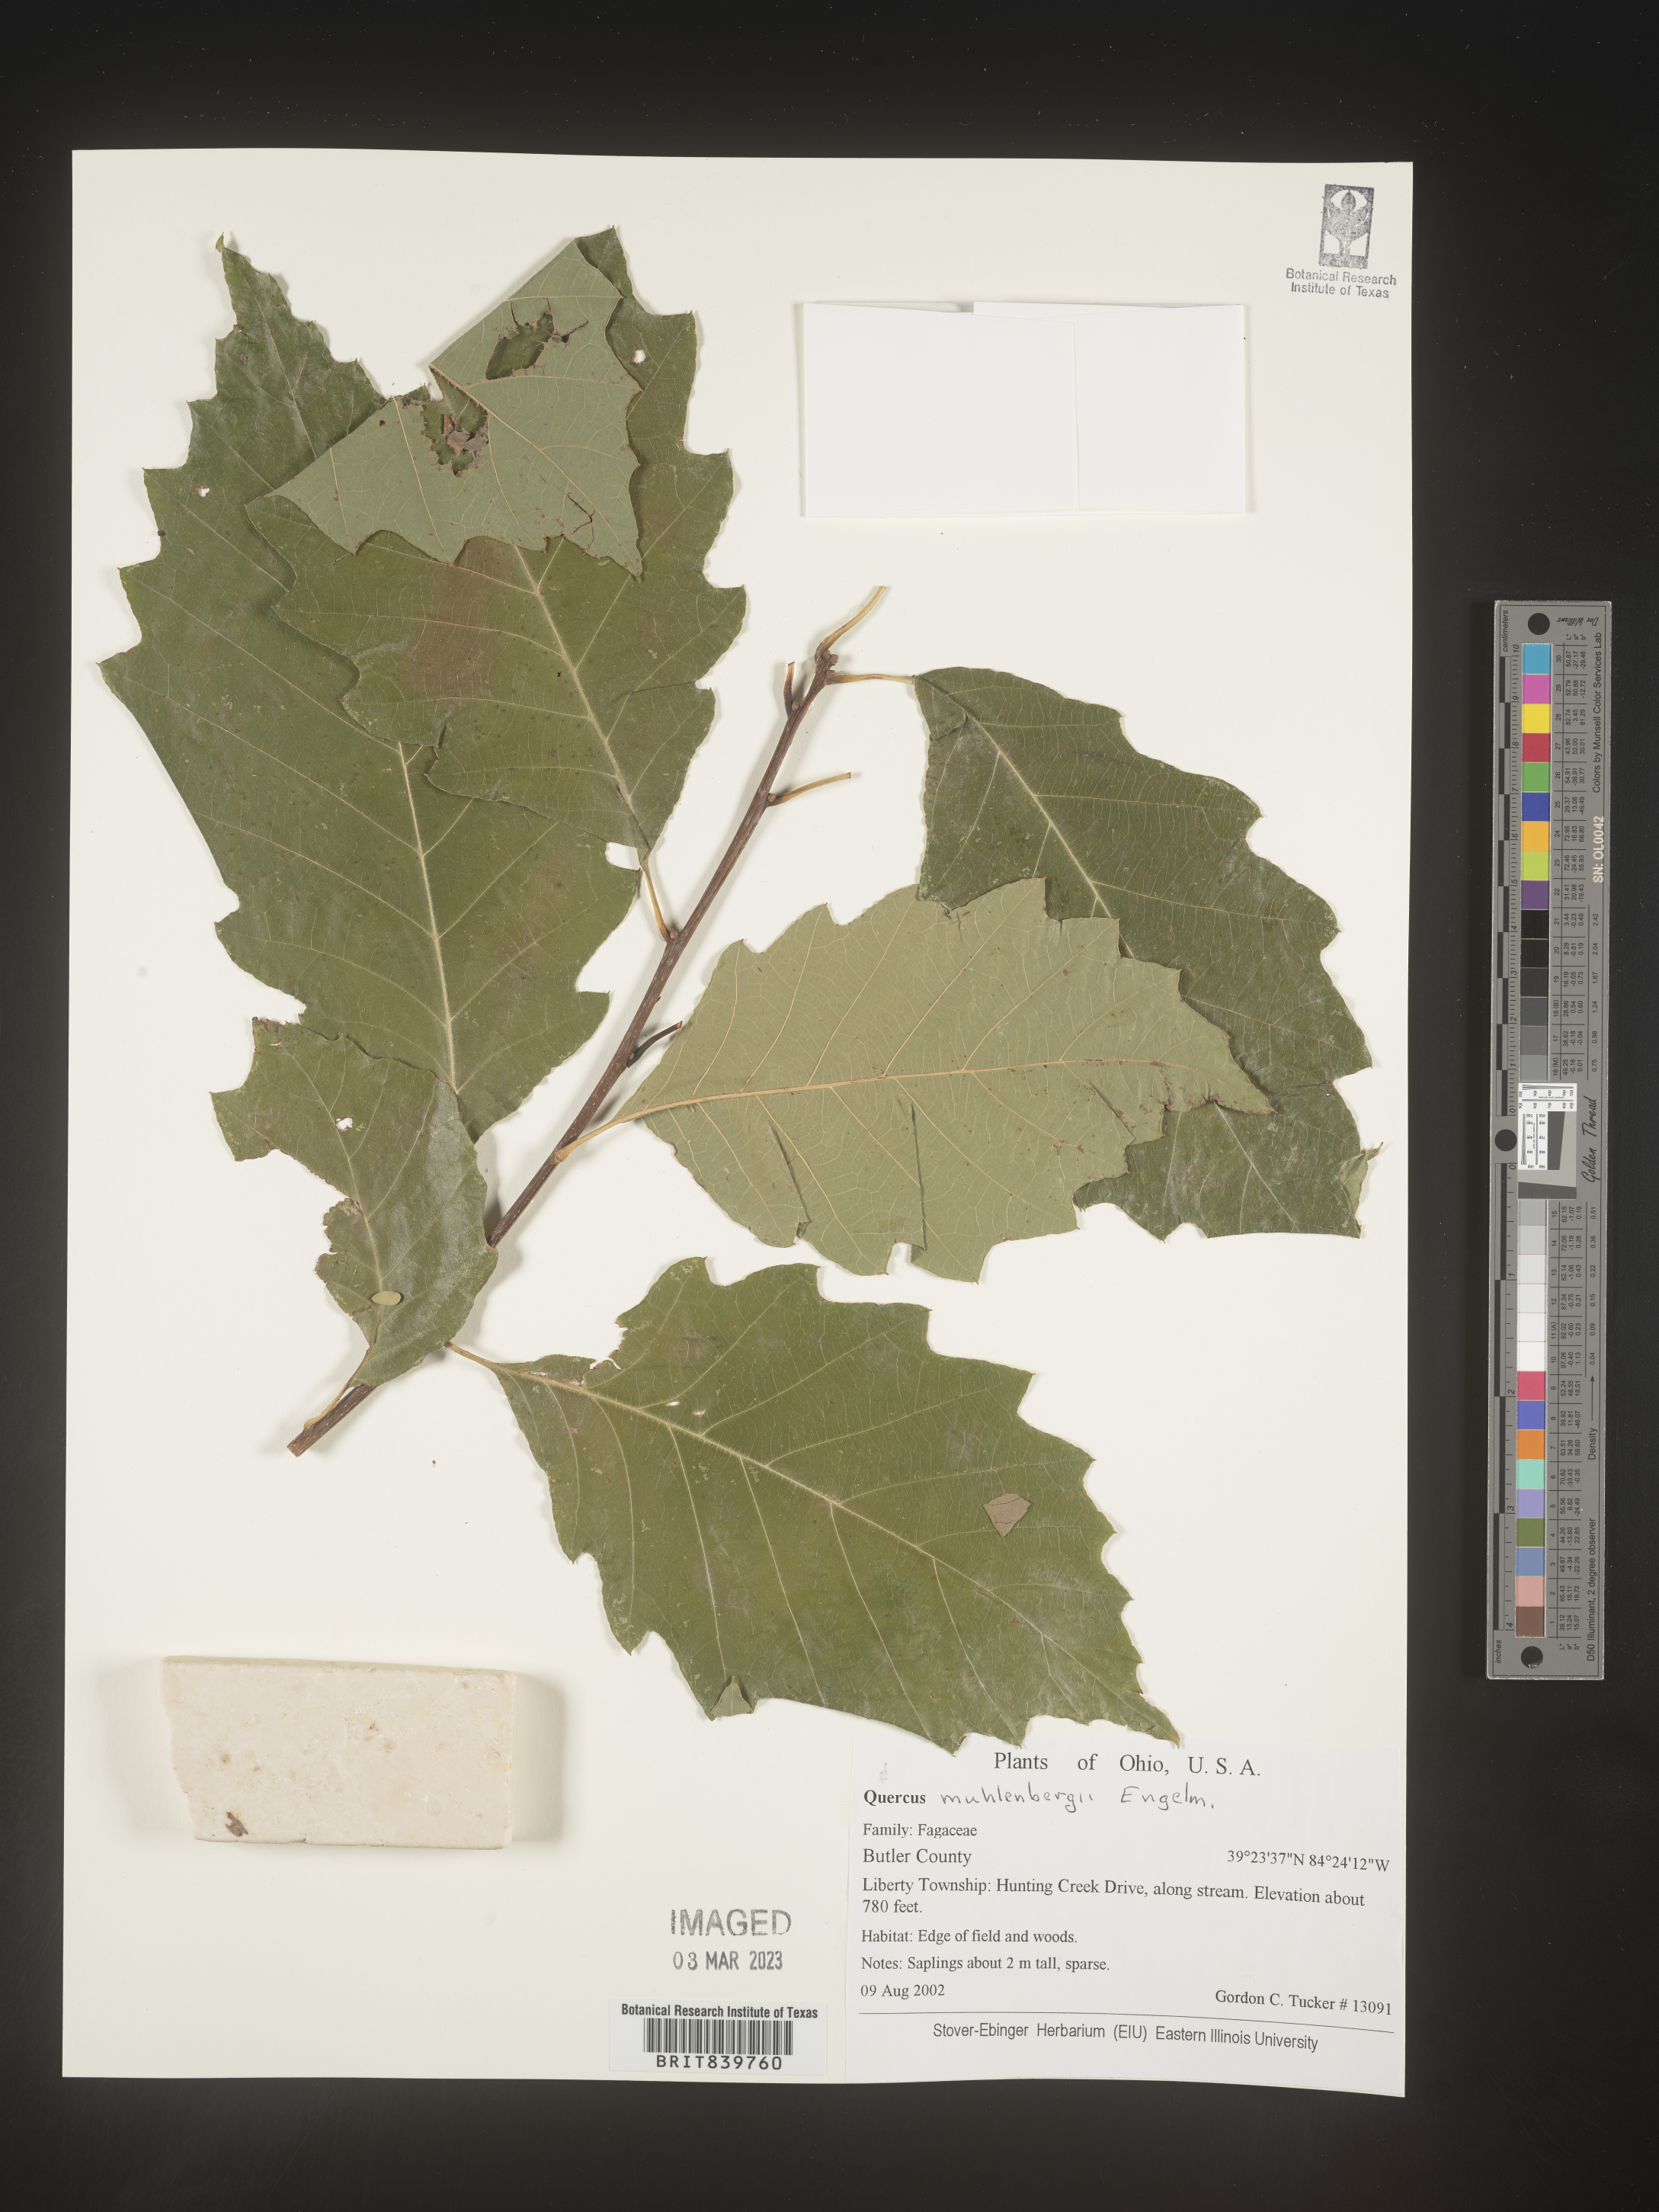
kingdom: Plantae
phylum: Tracheophyta
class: Magnoliopsida
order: Fagales
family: Fagaceae
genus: Quercus
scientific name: Quercus muehlenbergii
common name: Chinkapin oak
